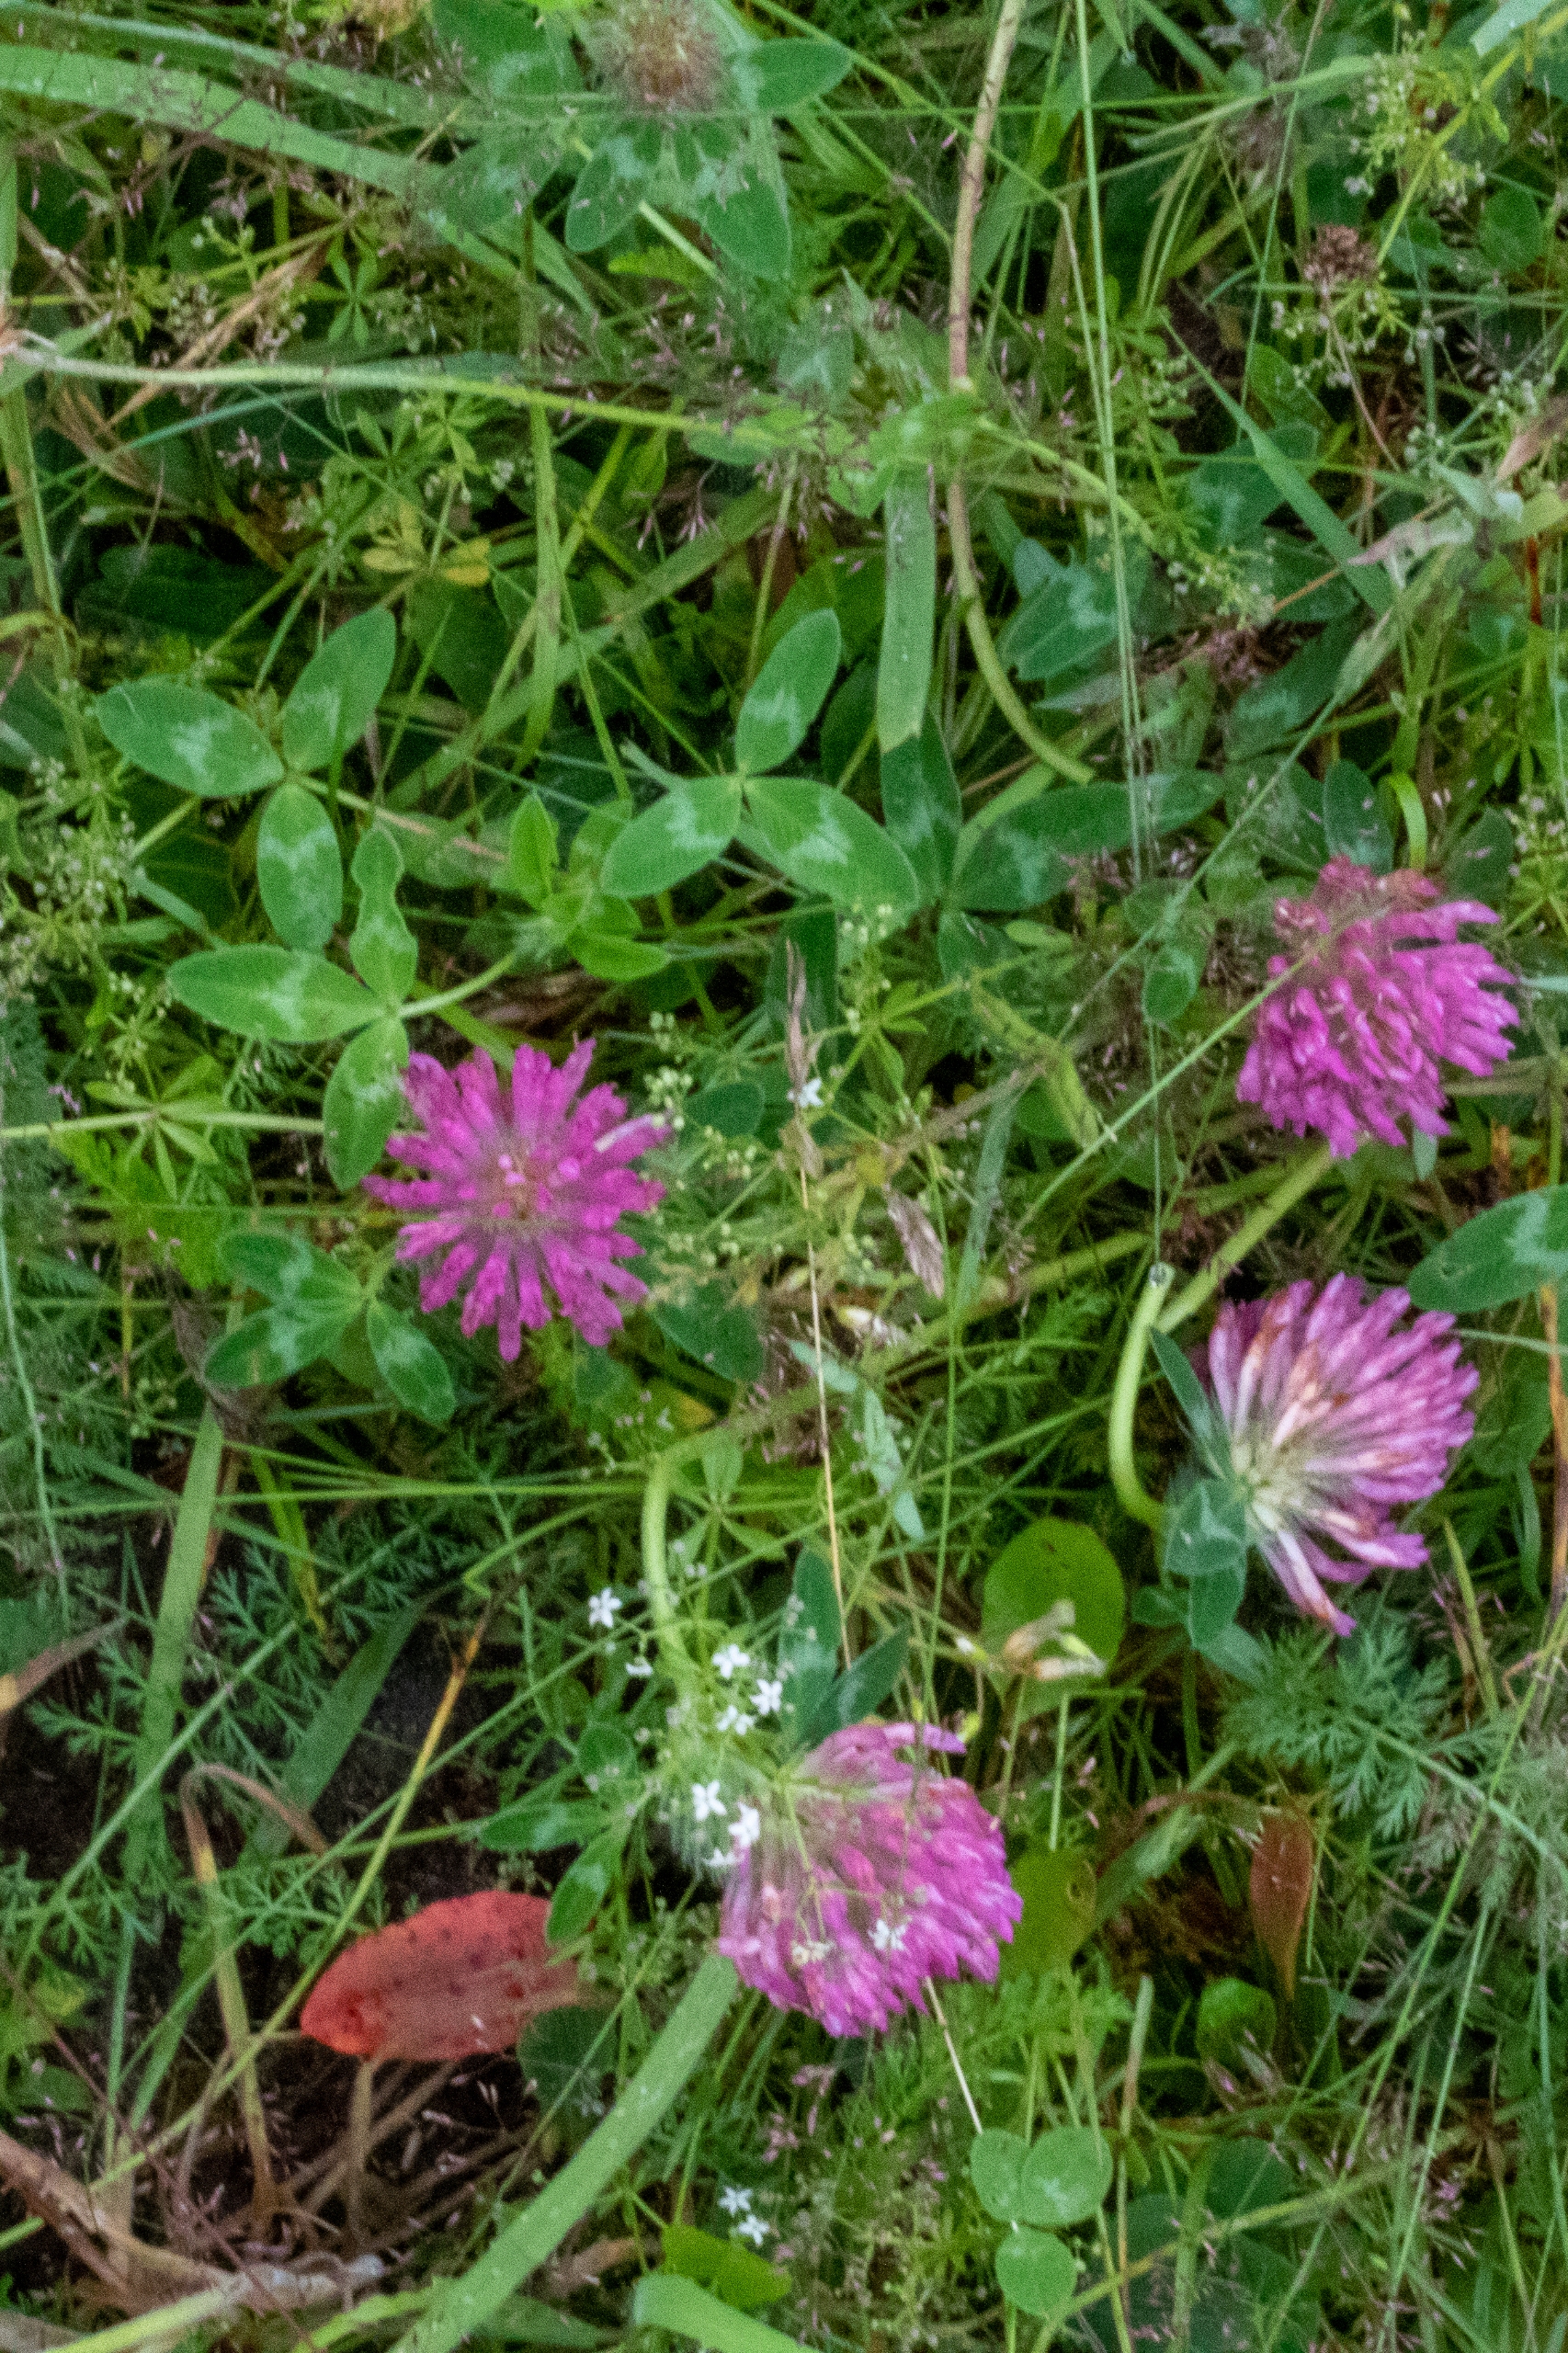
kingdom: Plantae
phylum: Tracheophyta
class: Magnoliopsida
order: Fabales
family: Fabaceae
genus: Trifolium
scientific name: Trifolium medium
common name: Bugtet kløver
